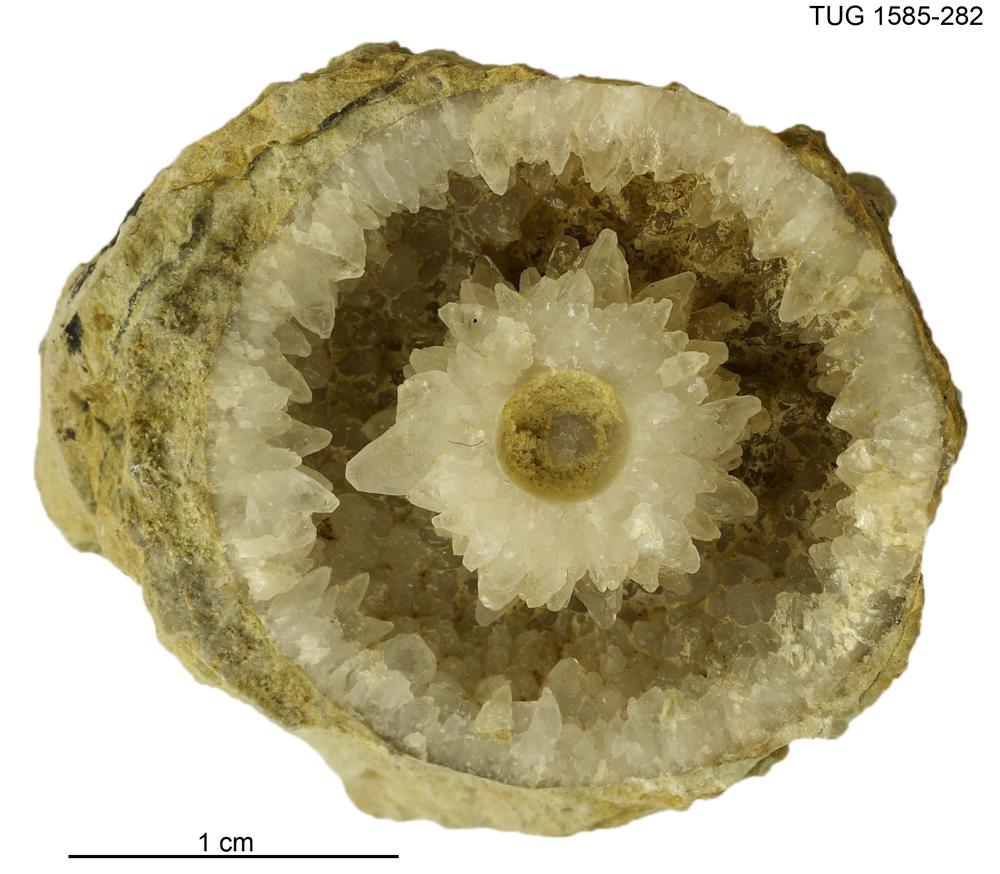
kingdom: Animalia
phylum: Mollusca
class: Cephalopoda
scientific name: Cephalopoda
